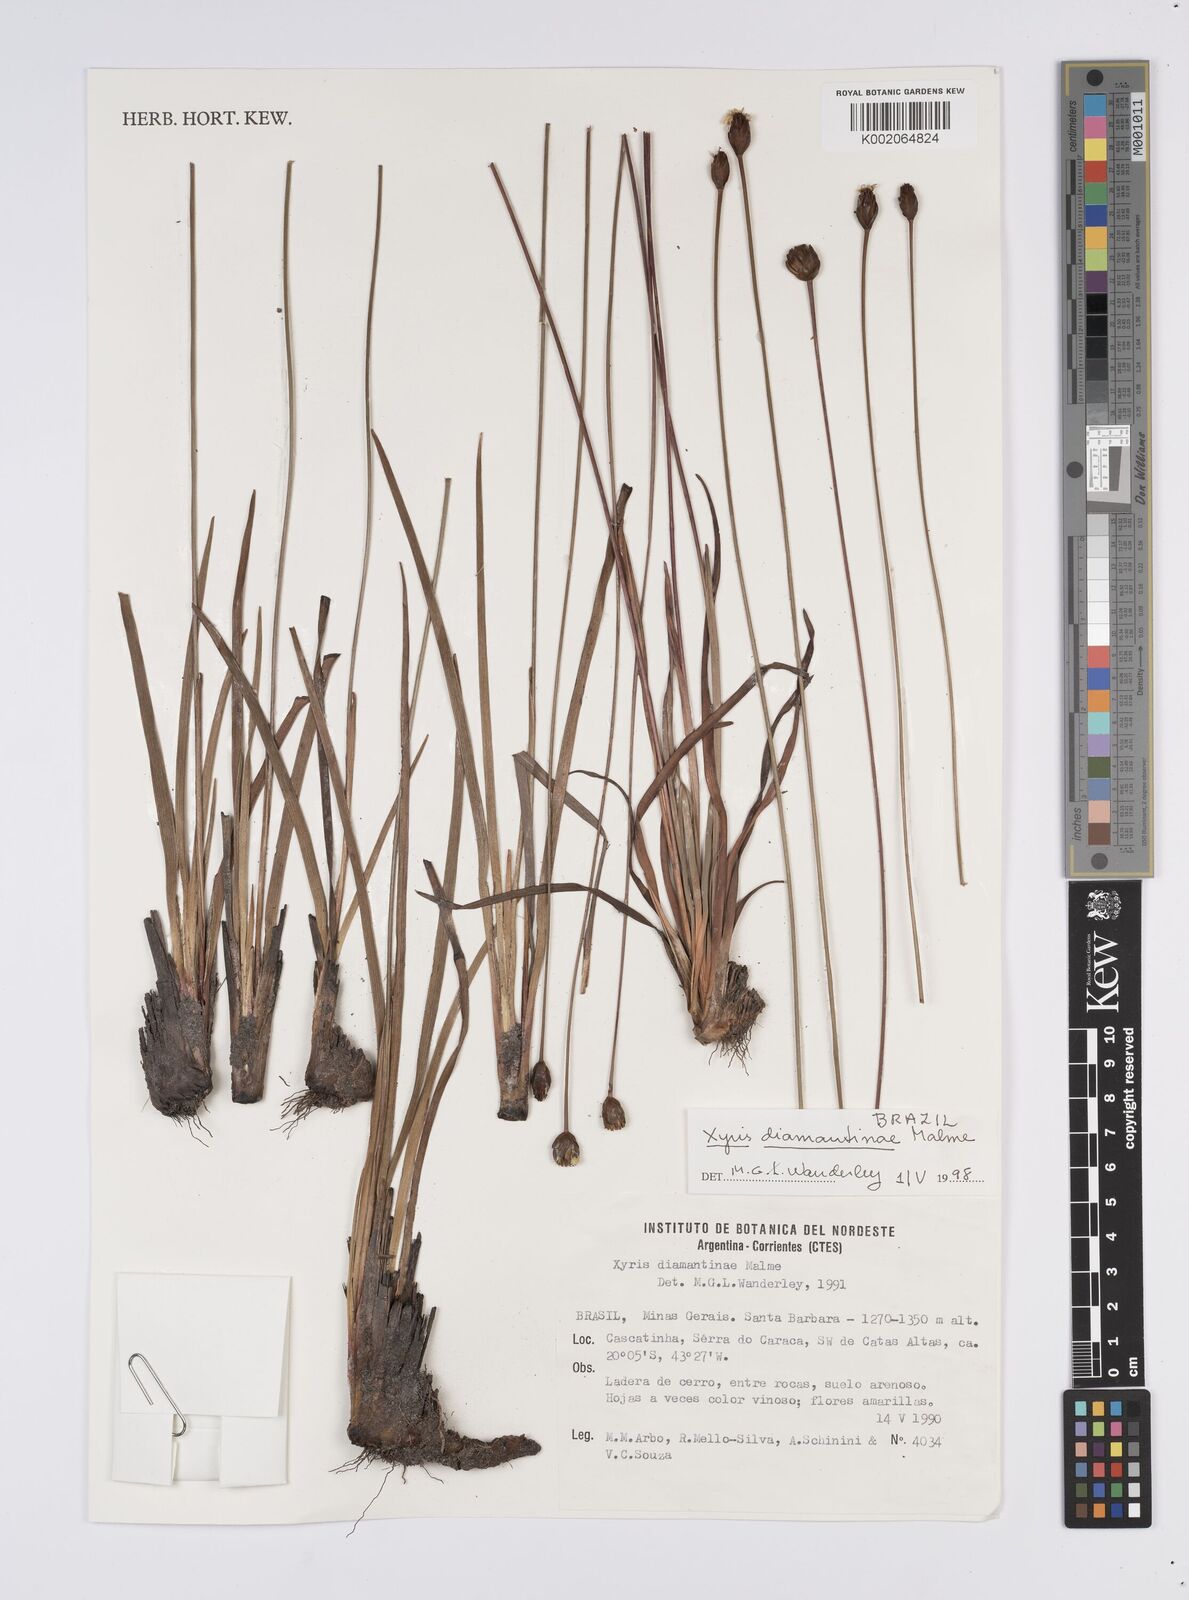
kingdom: Plantae
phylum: Tracheophyta
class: Liliopsida
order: Poales
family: Xyridaceae
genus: Xyris
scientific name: Xyris diamantinae
